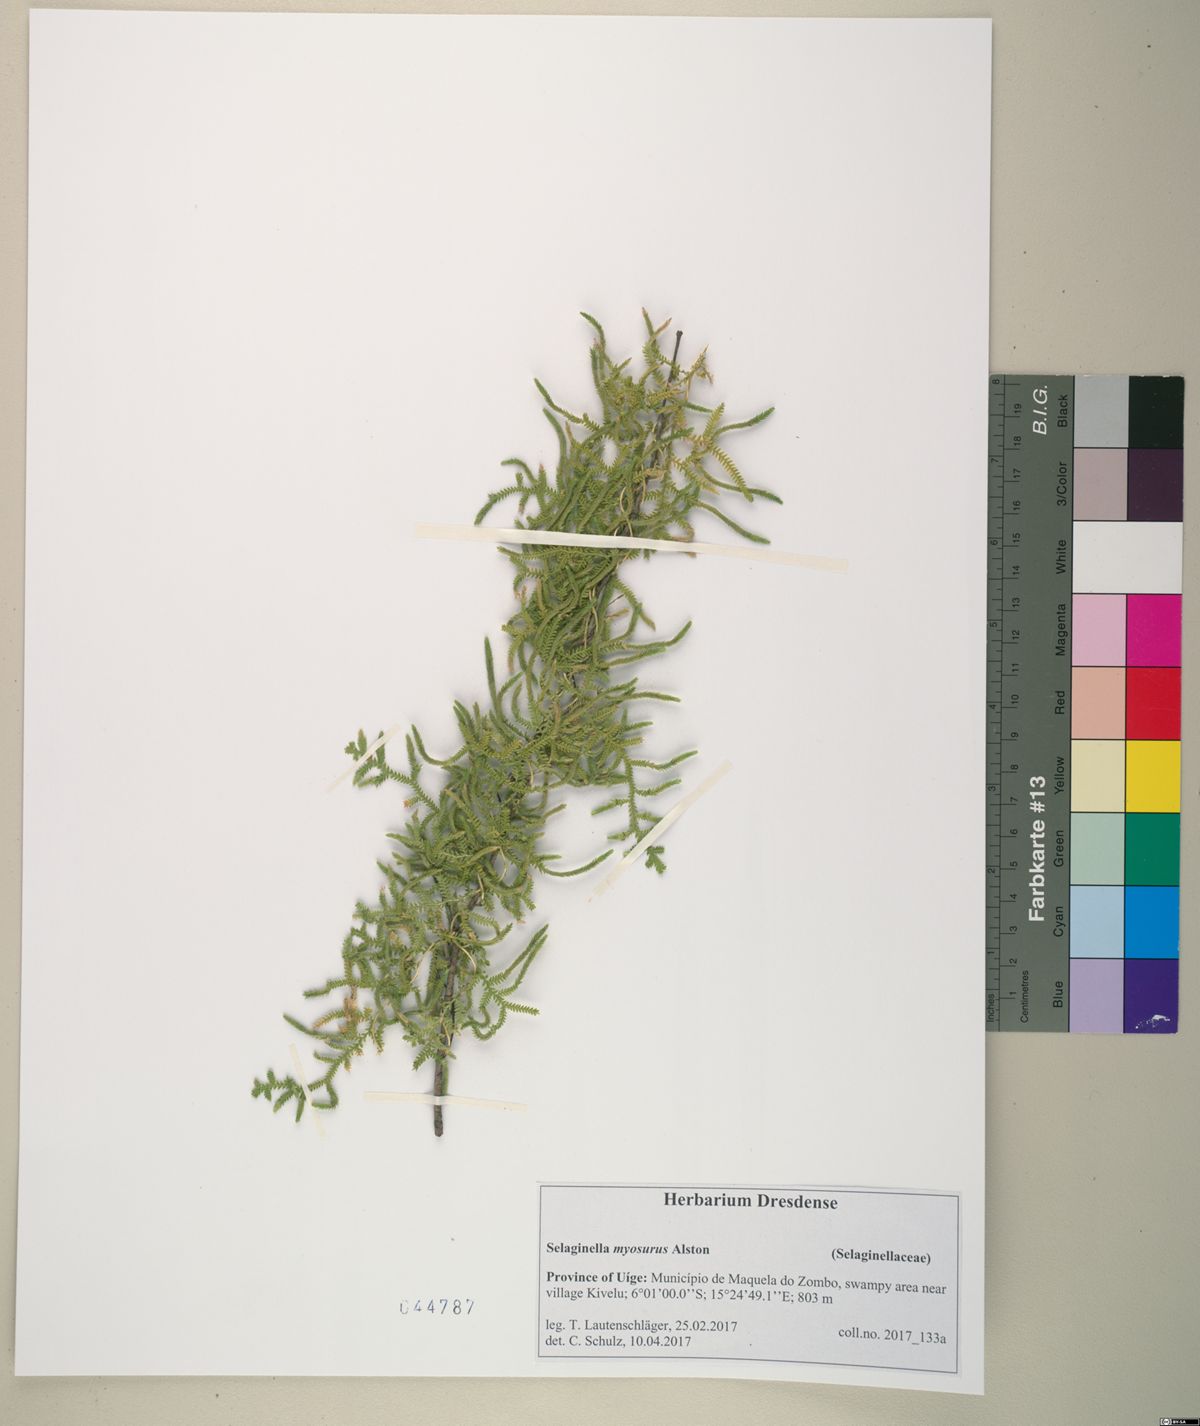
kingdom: Plantae
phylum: Tracheophyta
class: Lycopodiopsida
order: Selaginellales
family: Selaginellaceae
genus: Selaginella
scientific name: Selaginella myosurus
